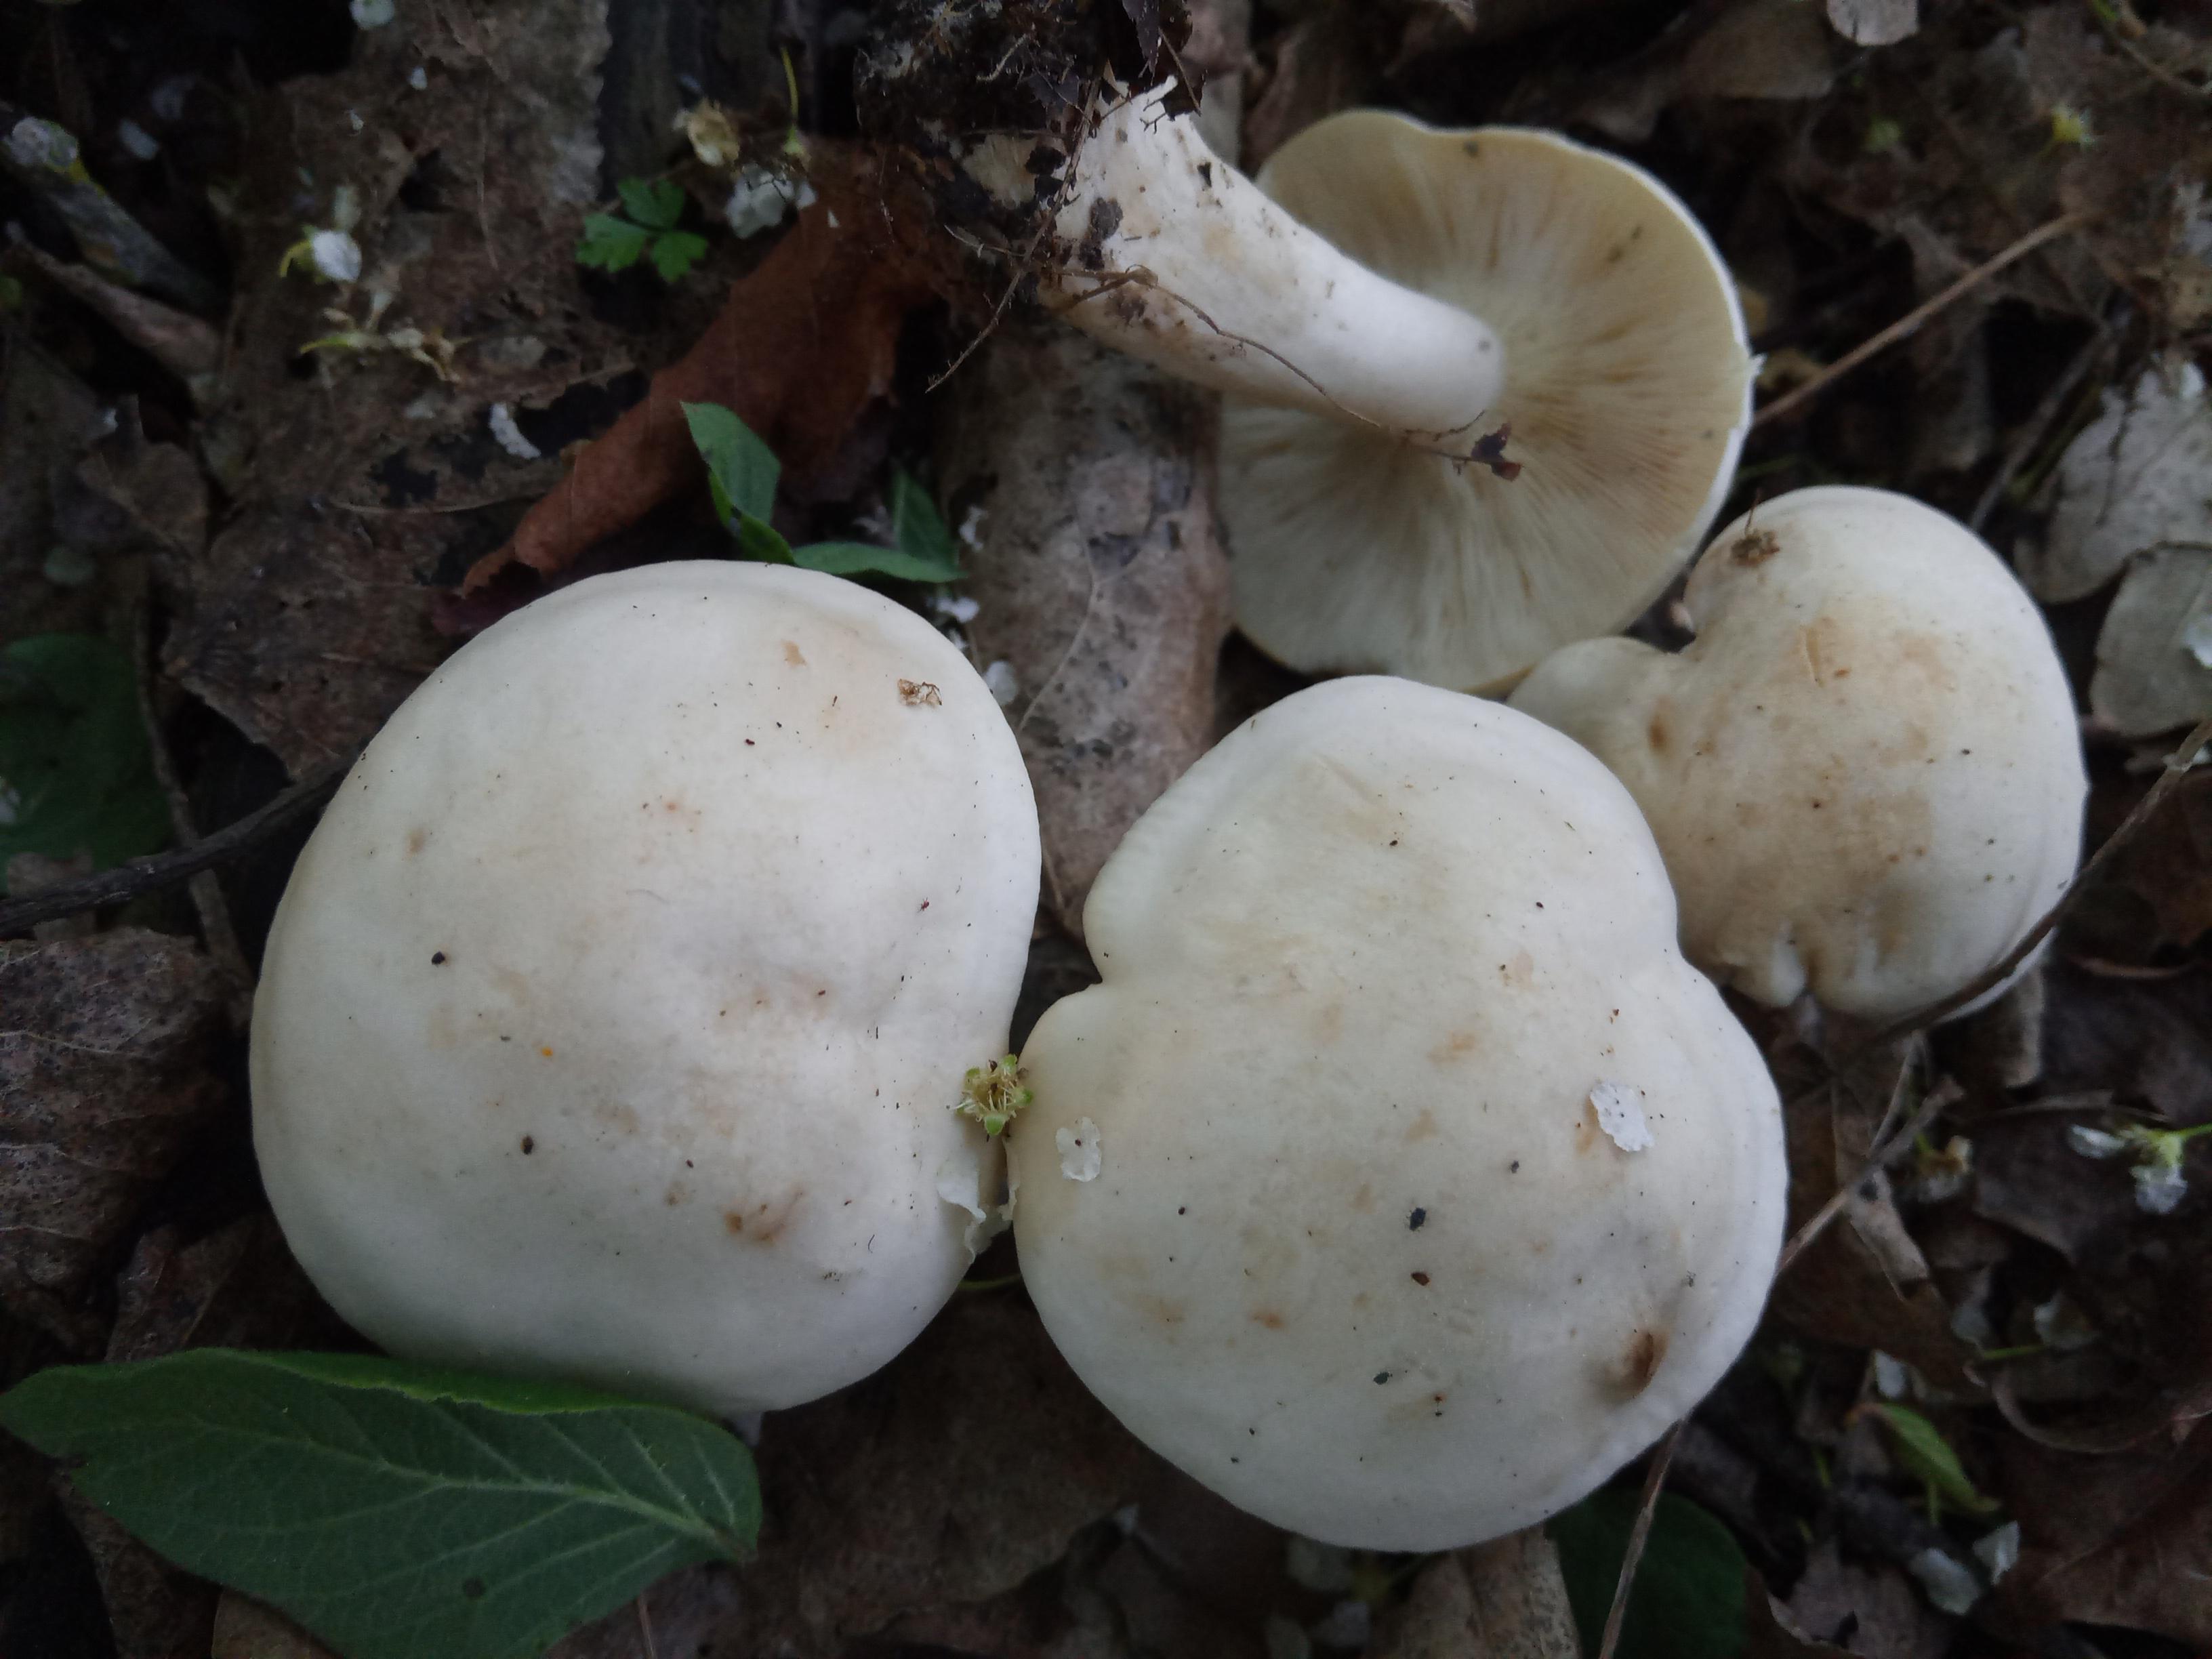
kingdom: Fungi
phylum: Basidiomycota
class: Agaricomycetes
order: Agaricales
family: Lyophyllaceae
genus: Calocybe
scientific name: Calocybe gambosa
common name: vårmusseron
